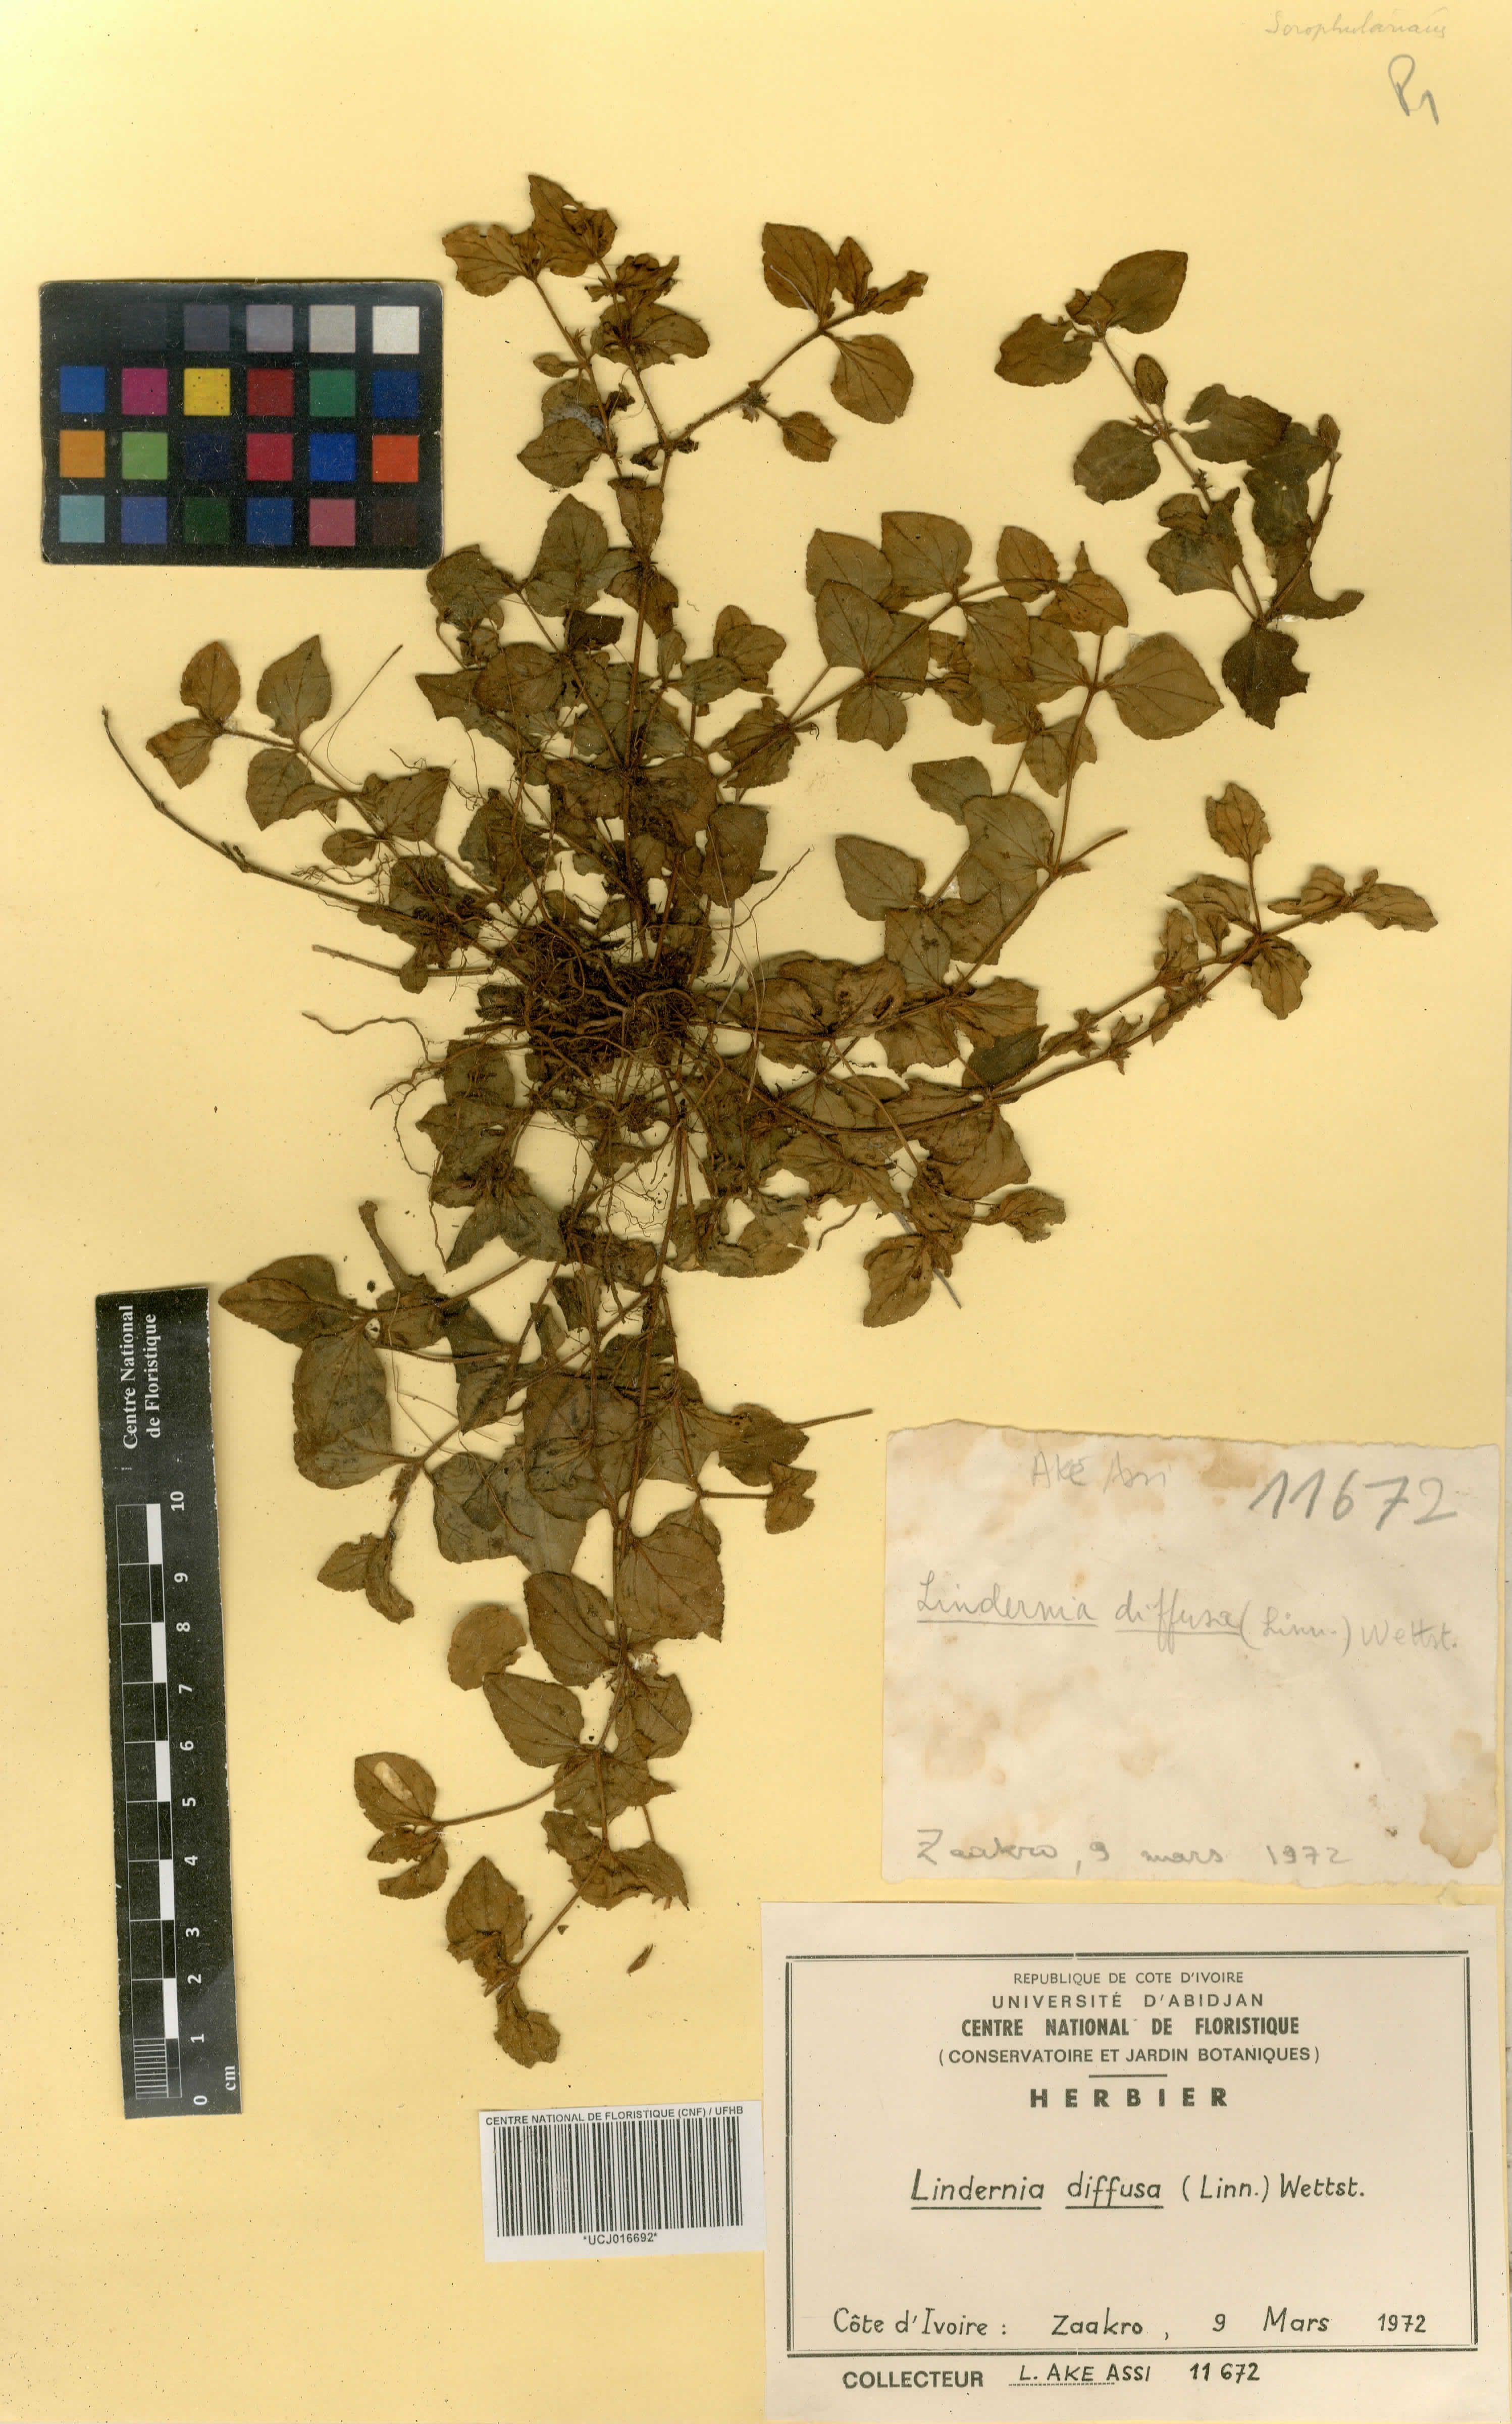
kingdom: Plantae
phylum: Tracheophyta
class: Magnoliopsida
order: Lamiales
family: Linderniaceae
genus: Vandellia
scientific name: Vandellia diffusa
